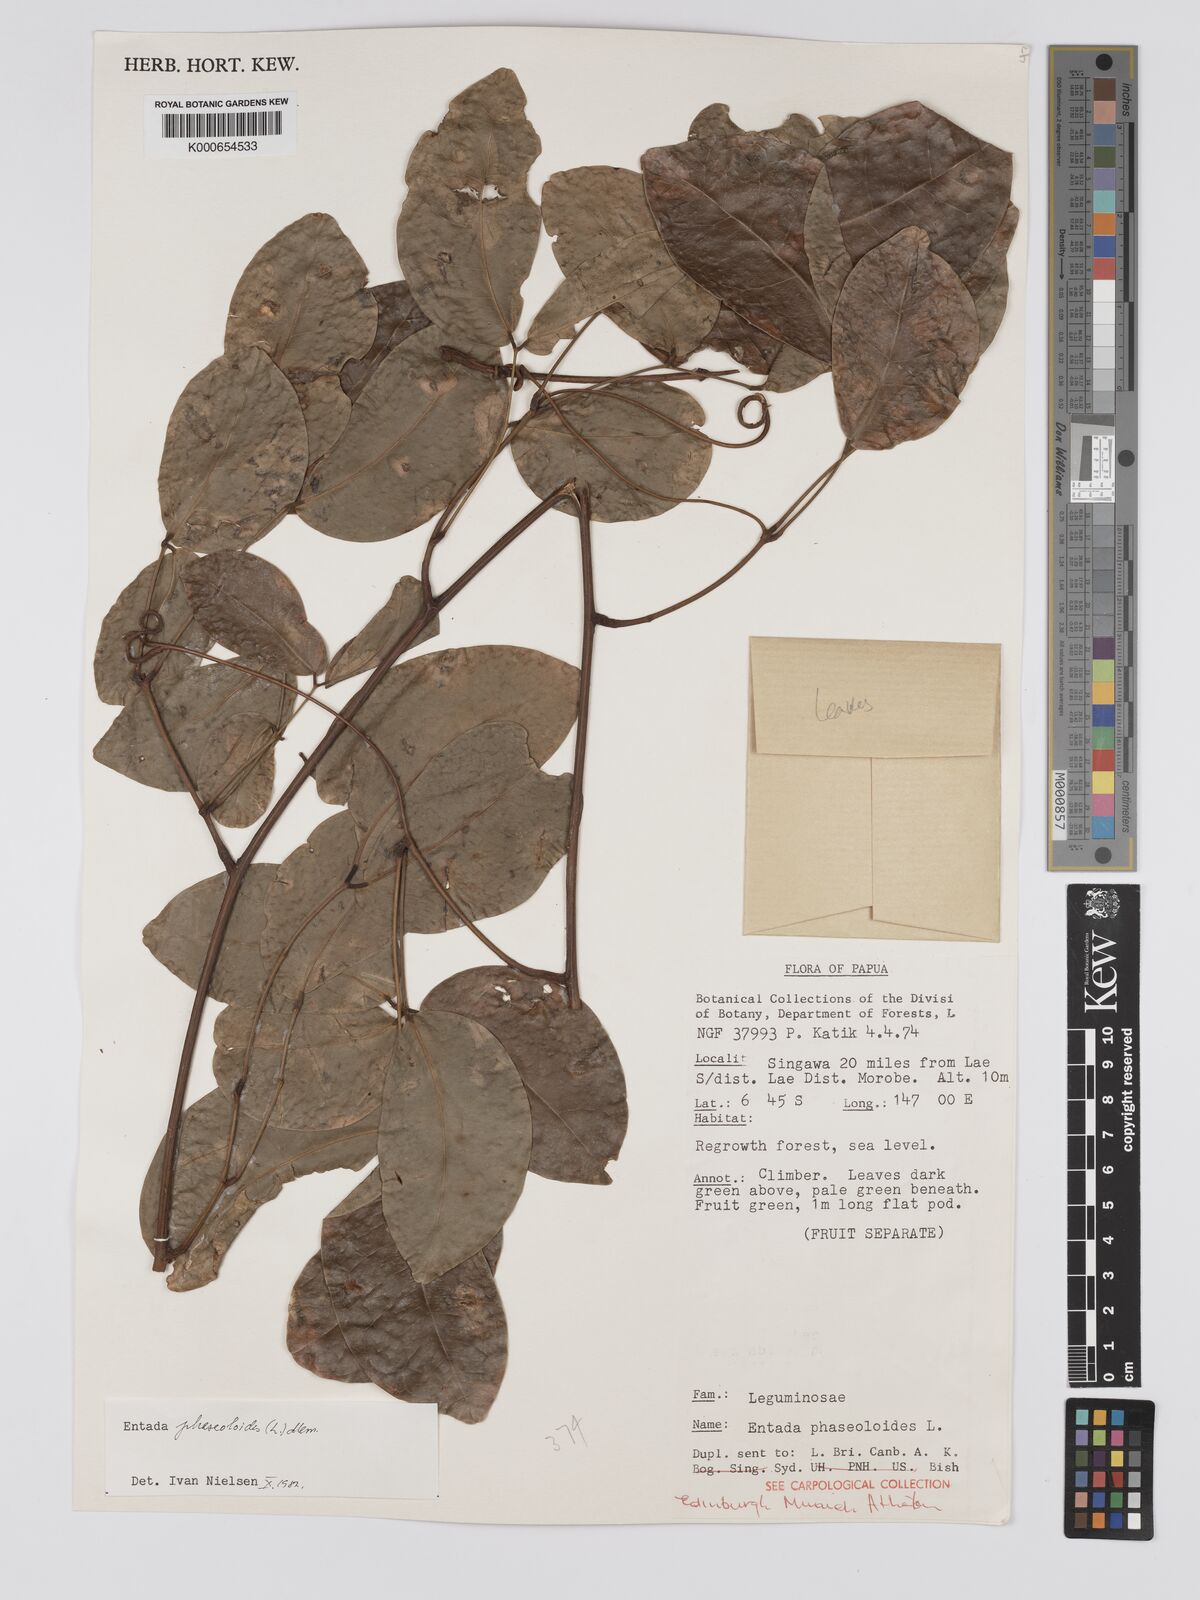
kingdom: Plantae
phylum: Tracheophyta
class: Magnoliopsida
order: Fabales
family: Fabaceae
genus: Entada
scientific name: Entada phaseoloides
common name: Matchbox-bean
